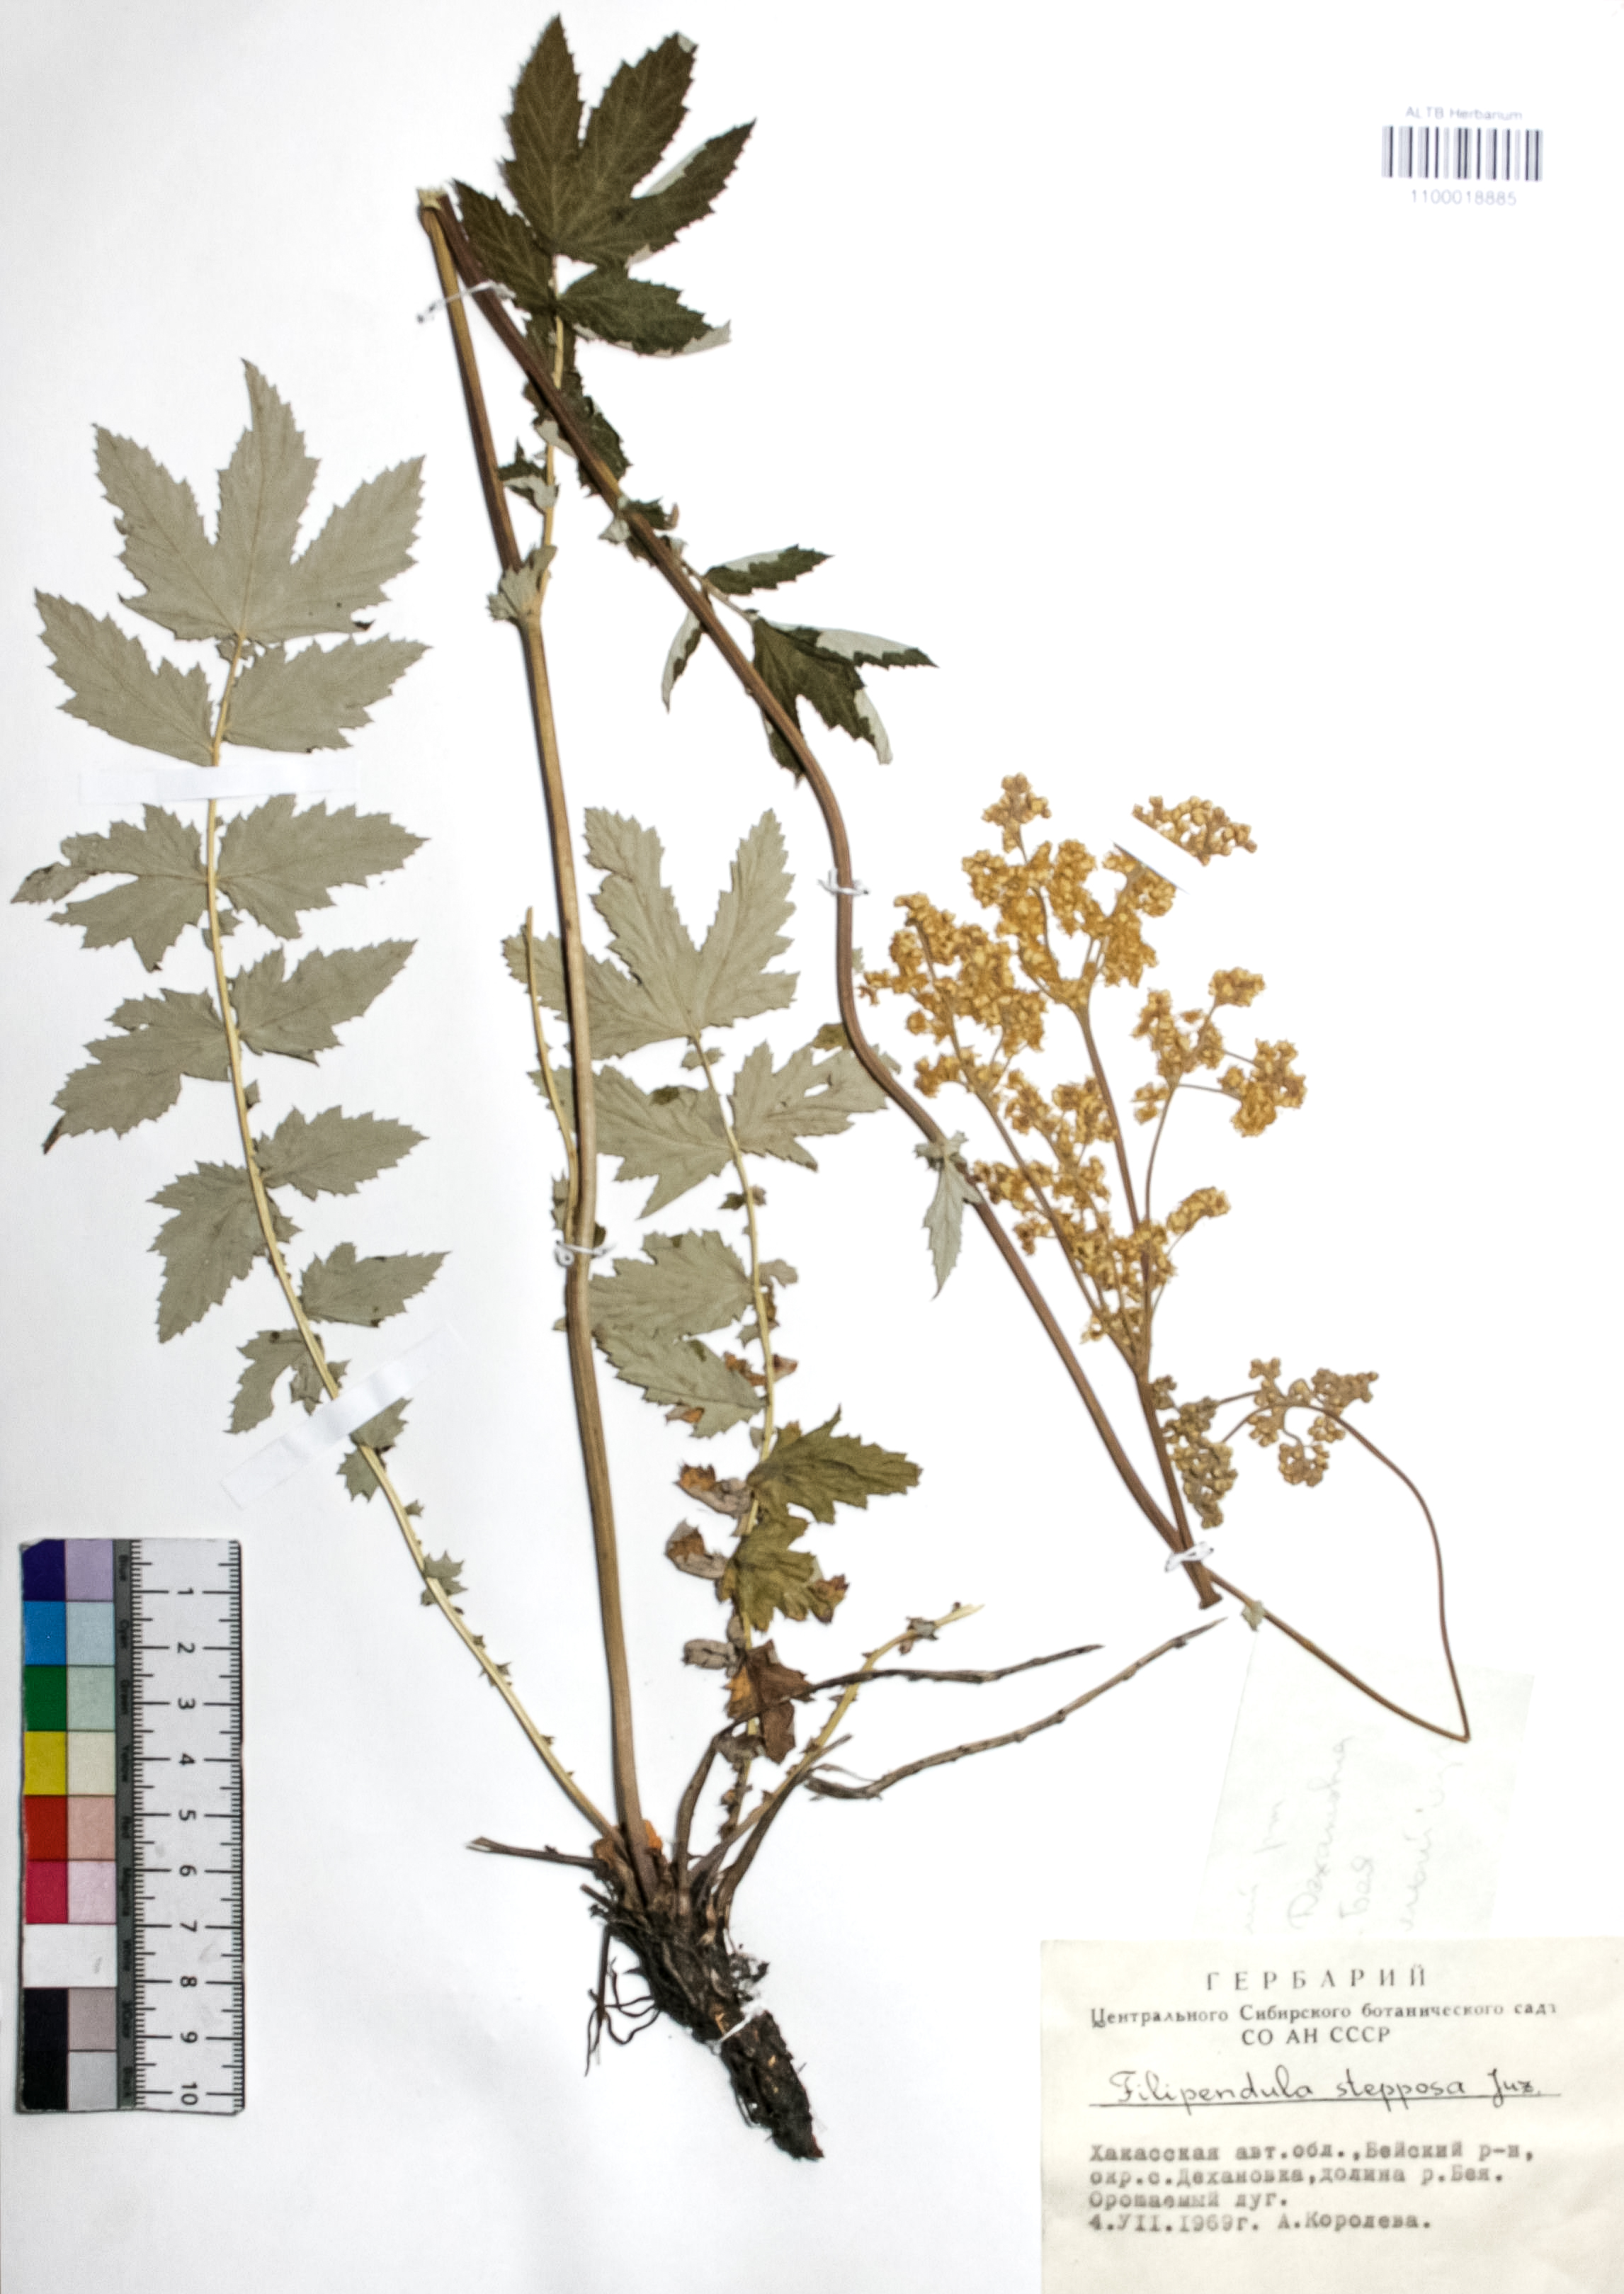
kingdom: Plantae
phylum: Tracheophyta
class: Magnoliopsida
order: Rosales
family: Rosaceae
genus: Filipendula
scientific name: Filipendula ulmaria
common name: Meadowsweet
